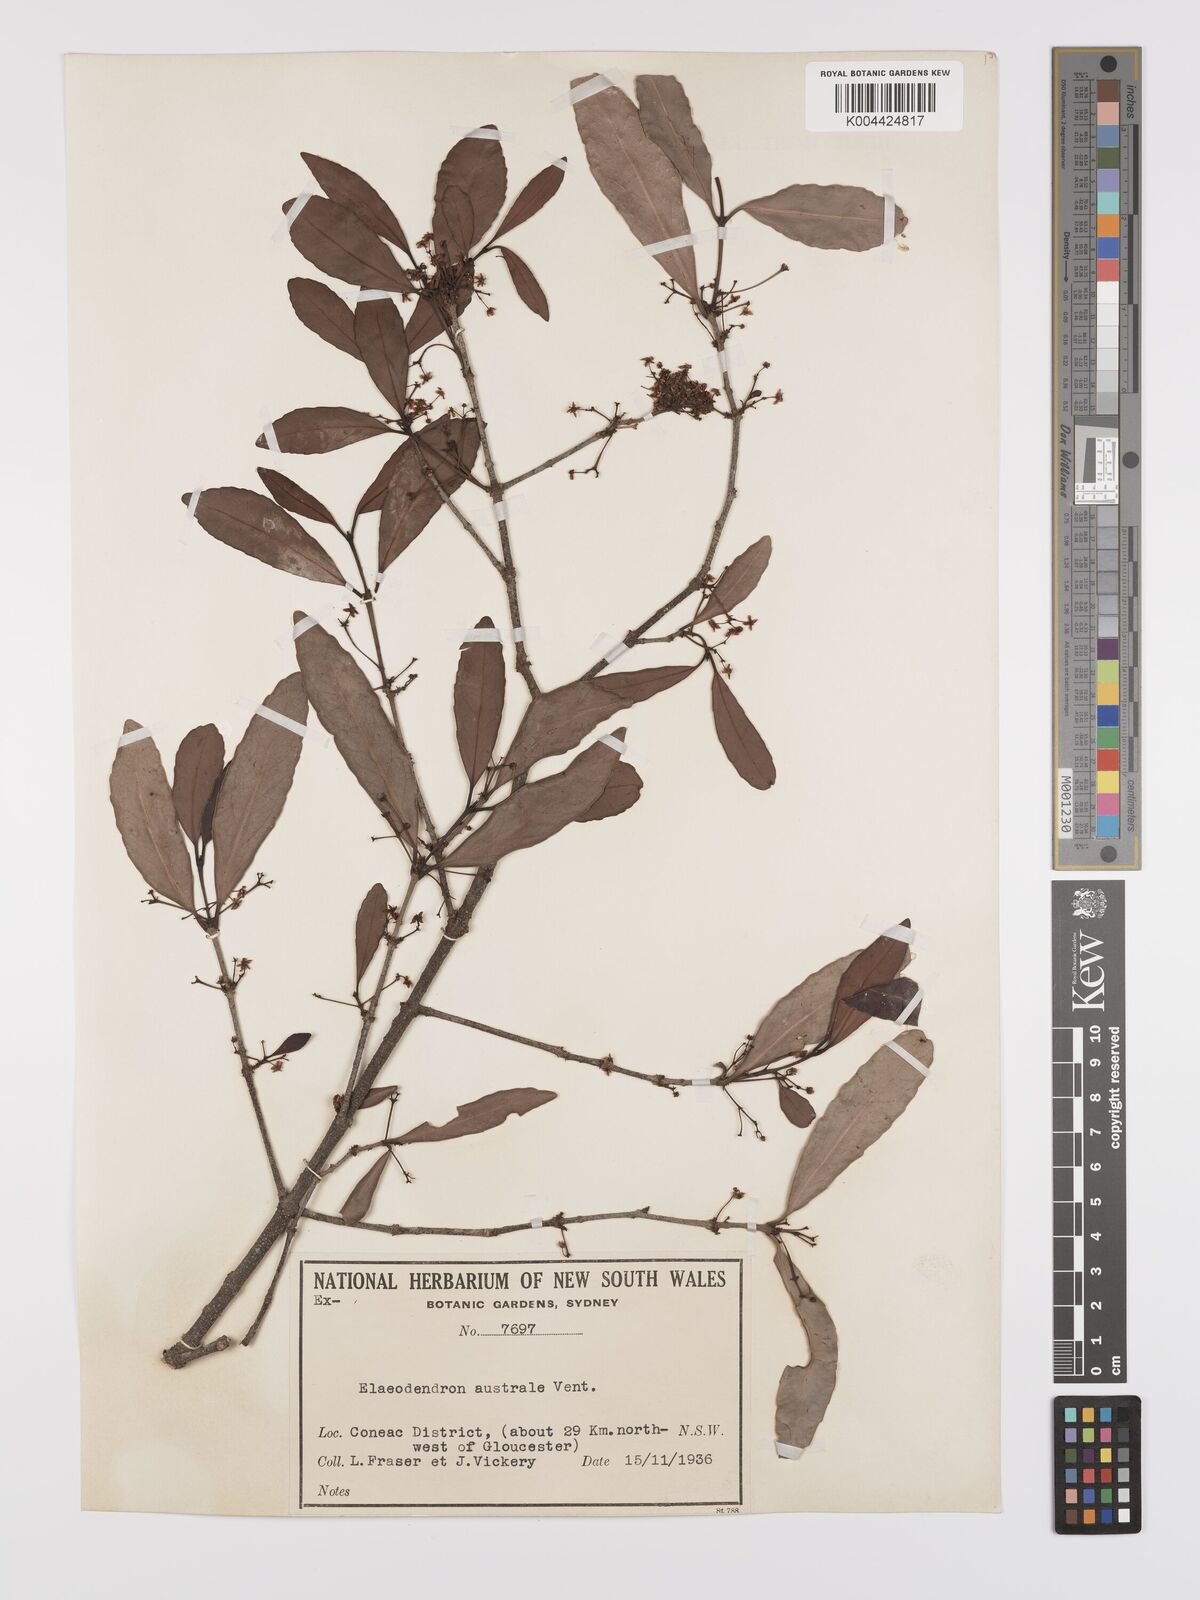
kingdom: Plantae
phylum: Tracheophyta
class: Magnoliopsida
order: Celastrales
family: Celastraceae
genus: Elaeodendron
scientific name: Elaeodendron australe
